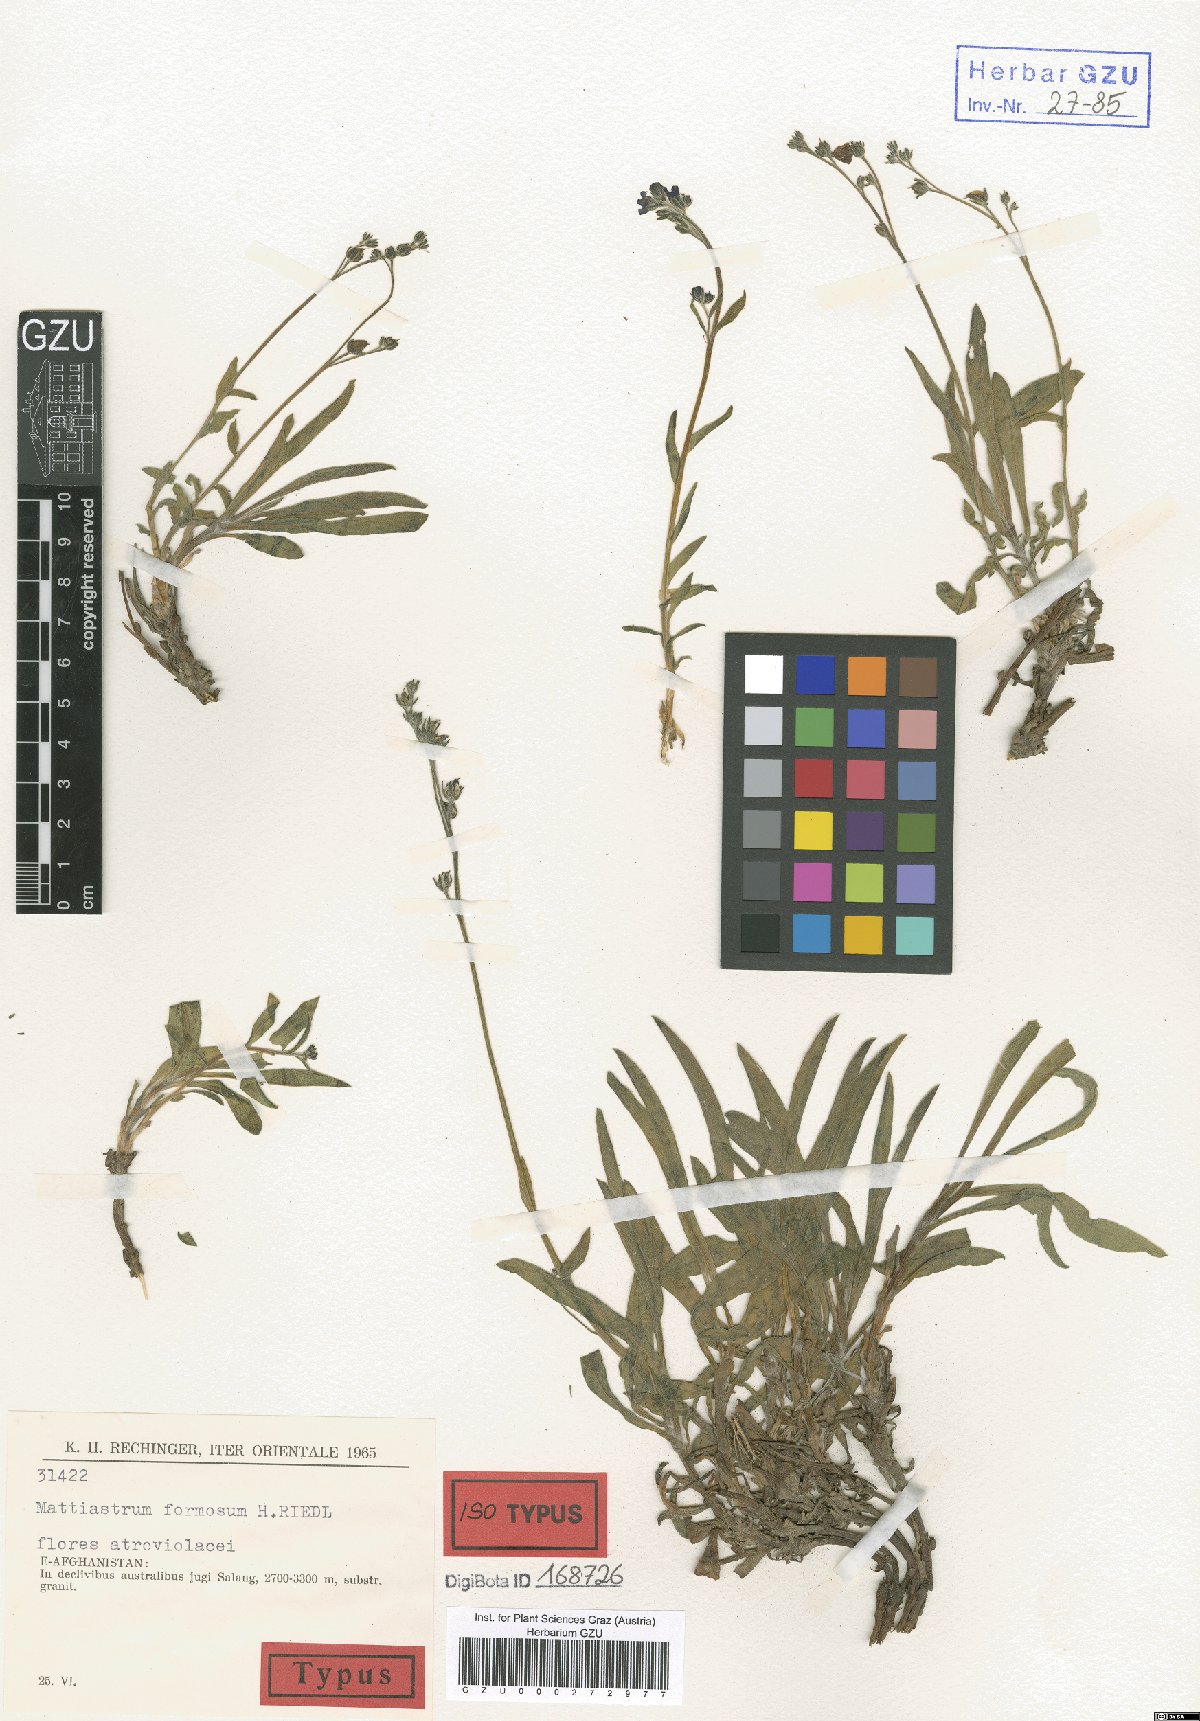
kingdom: Plantae
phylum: Tracheophyta
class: Magnoliopsida
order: Boraginales
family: Boraginaceae
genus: Paracaryum
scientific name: Paracaryum rechingeri
